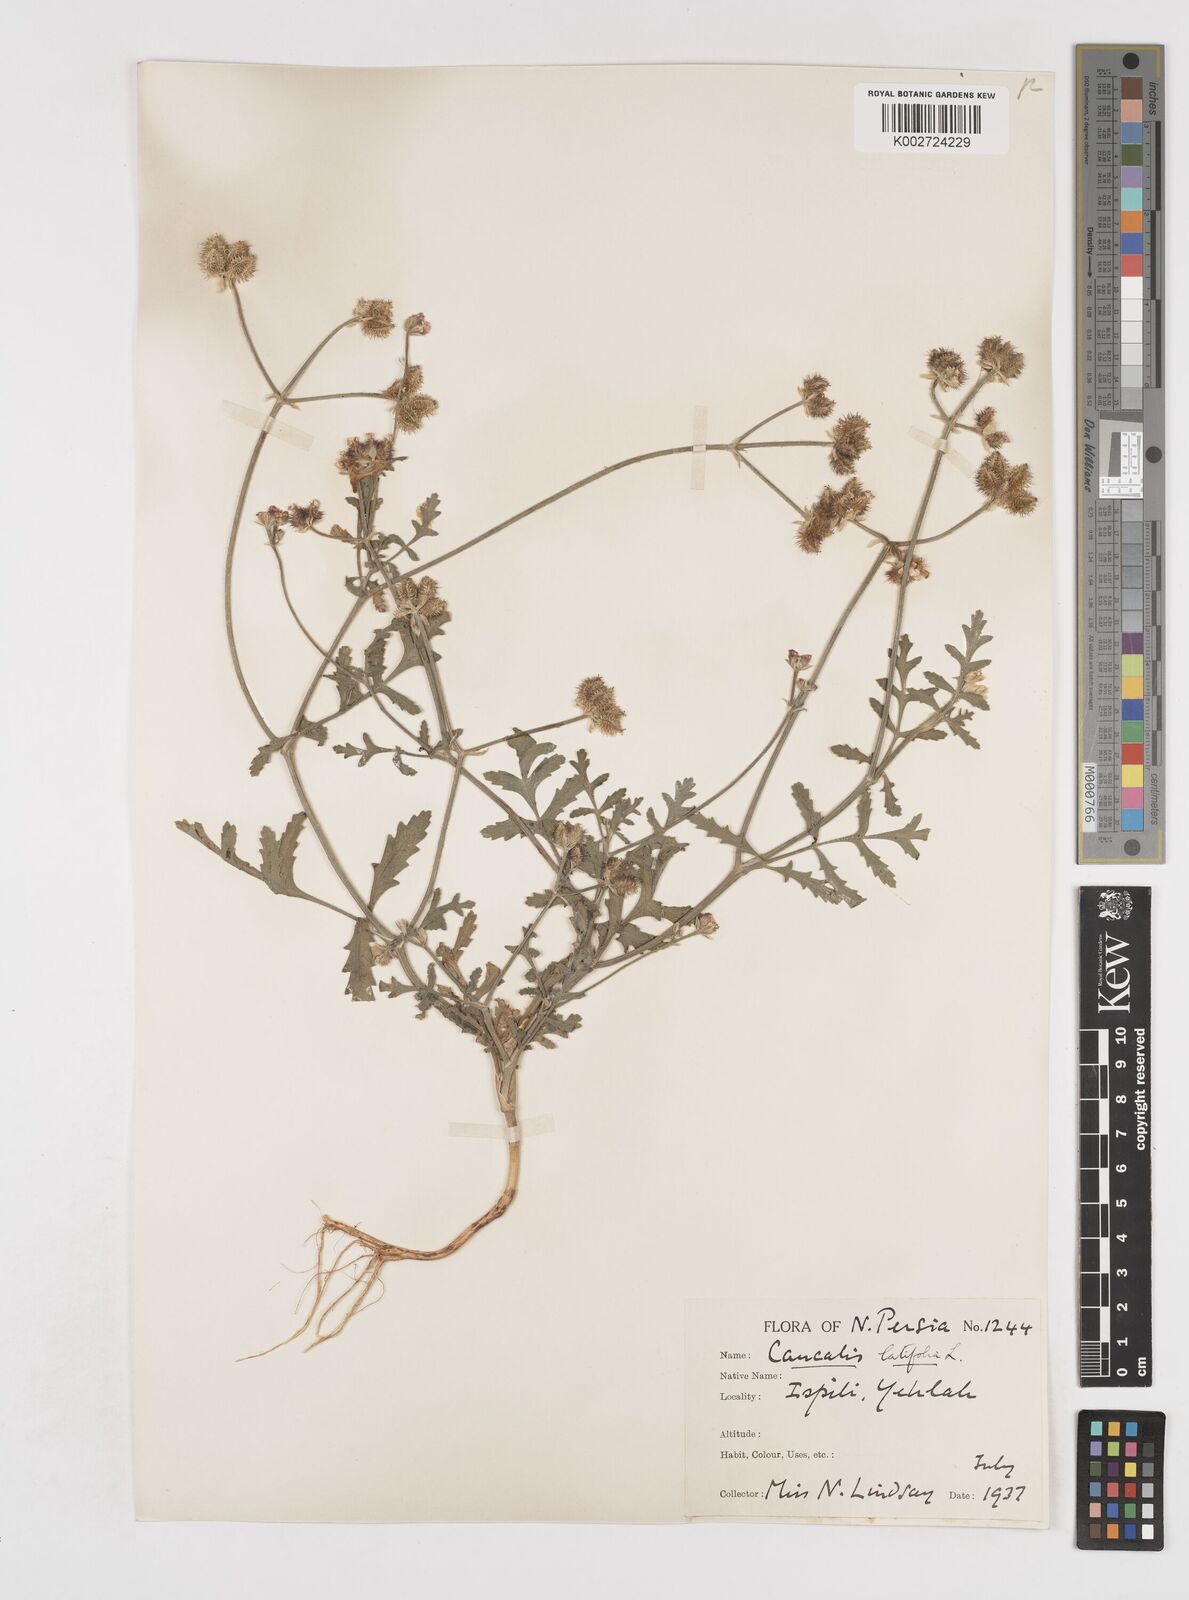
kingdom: Plantae
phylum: Tracheophyta
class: Magnoliopsida
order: Apiales
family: Apiaceae
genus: Turgenia
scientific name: Turgenia latifolia
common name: Greater bur-parsley
